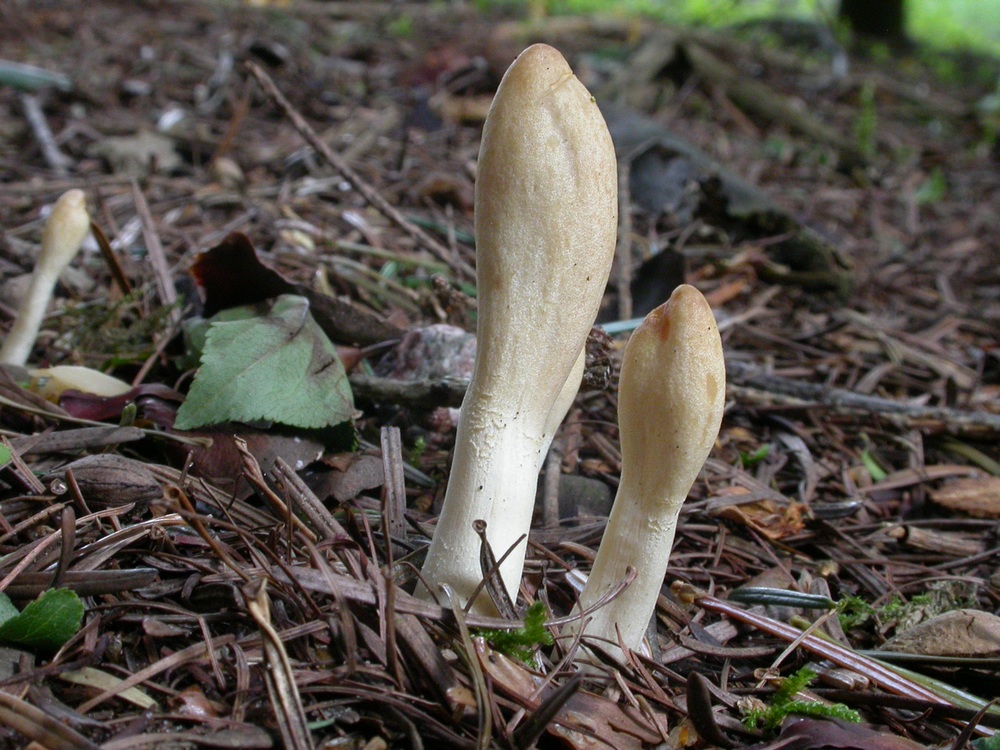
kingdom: Fungi
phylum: Ascomycota
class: Sordariomycetes
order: Hypocreales
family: Hypocreaceae
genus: Trichoderma
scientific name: Trichoderma leucopus
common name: lysstokket kødkerne
